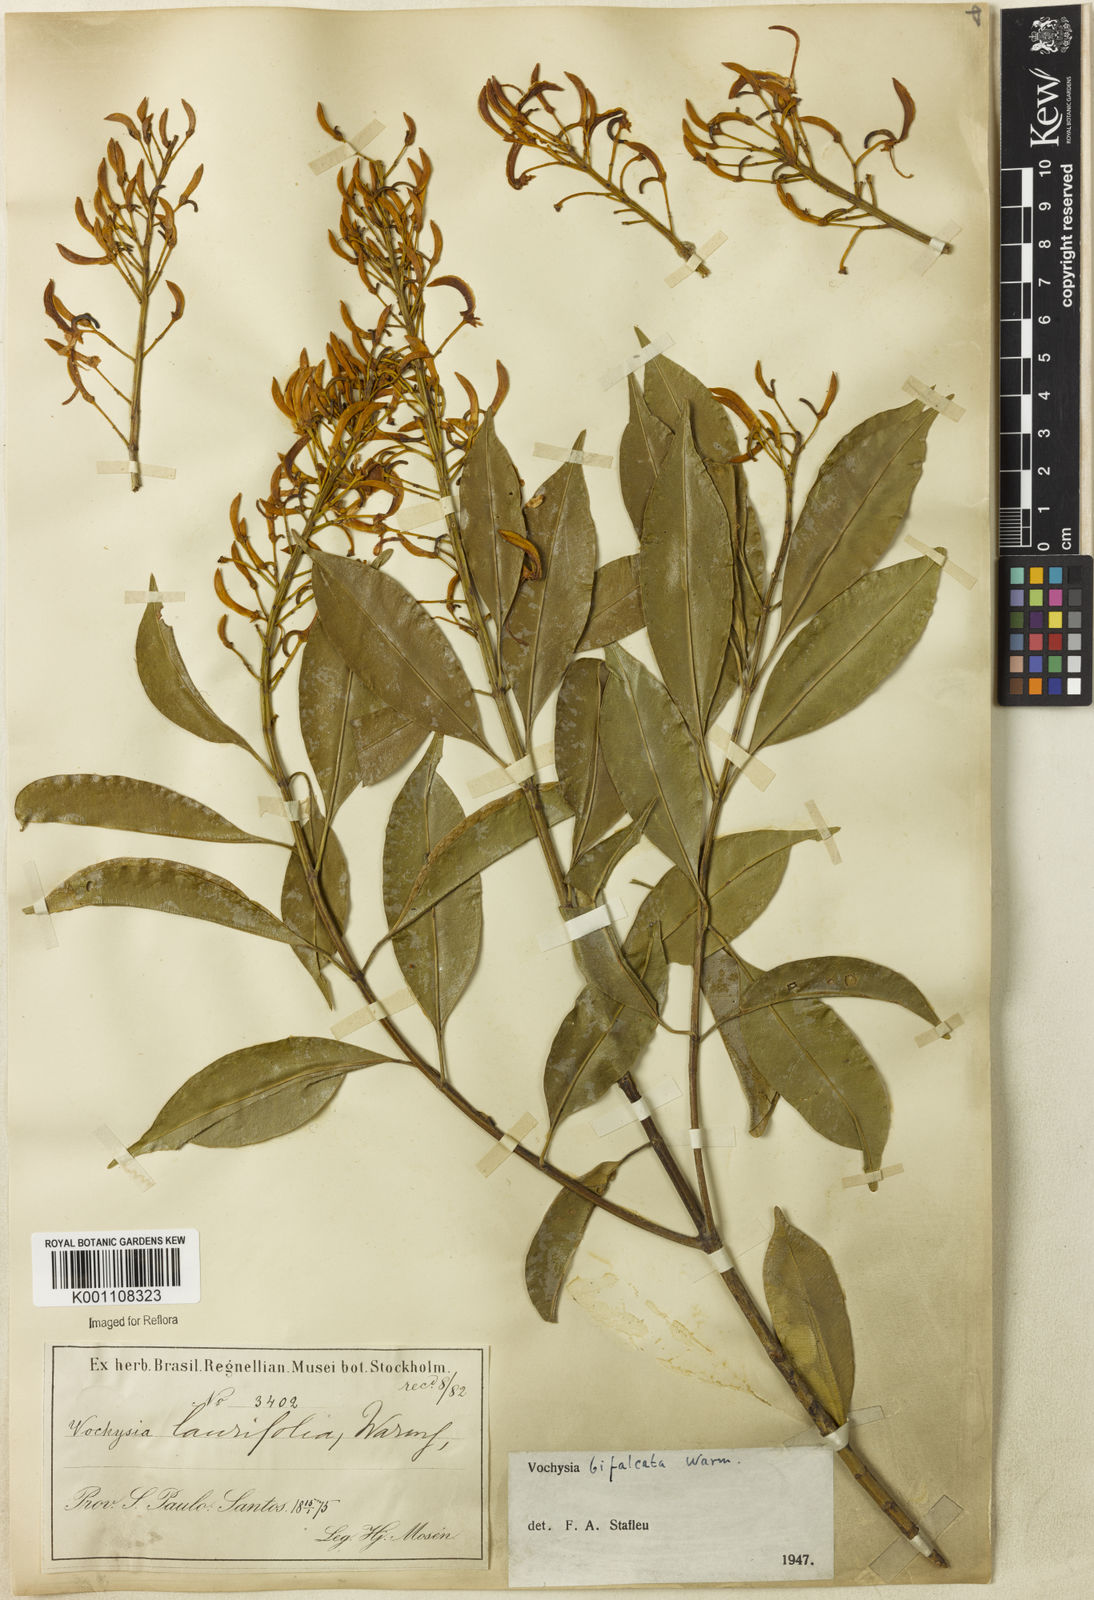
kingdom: Plantae
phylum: Tracheophyta
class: Magnoliopsida
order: Myrtales
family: Vochysiaceae
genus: Vochysia
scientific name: Vochysia bifalcata
